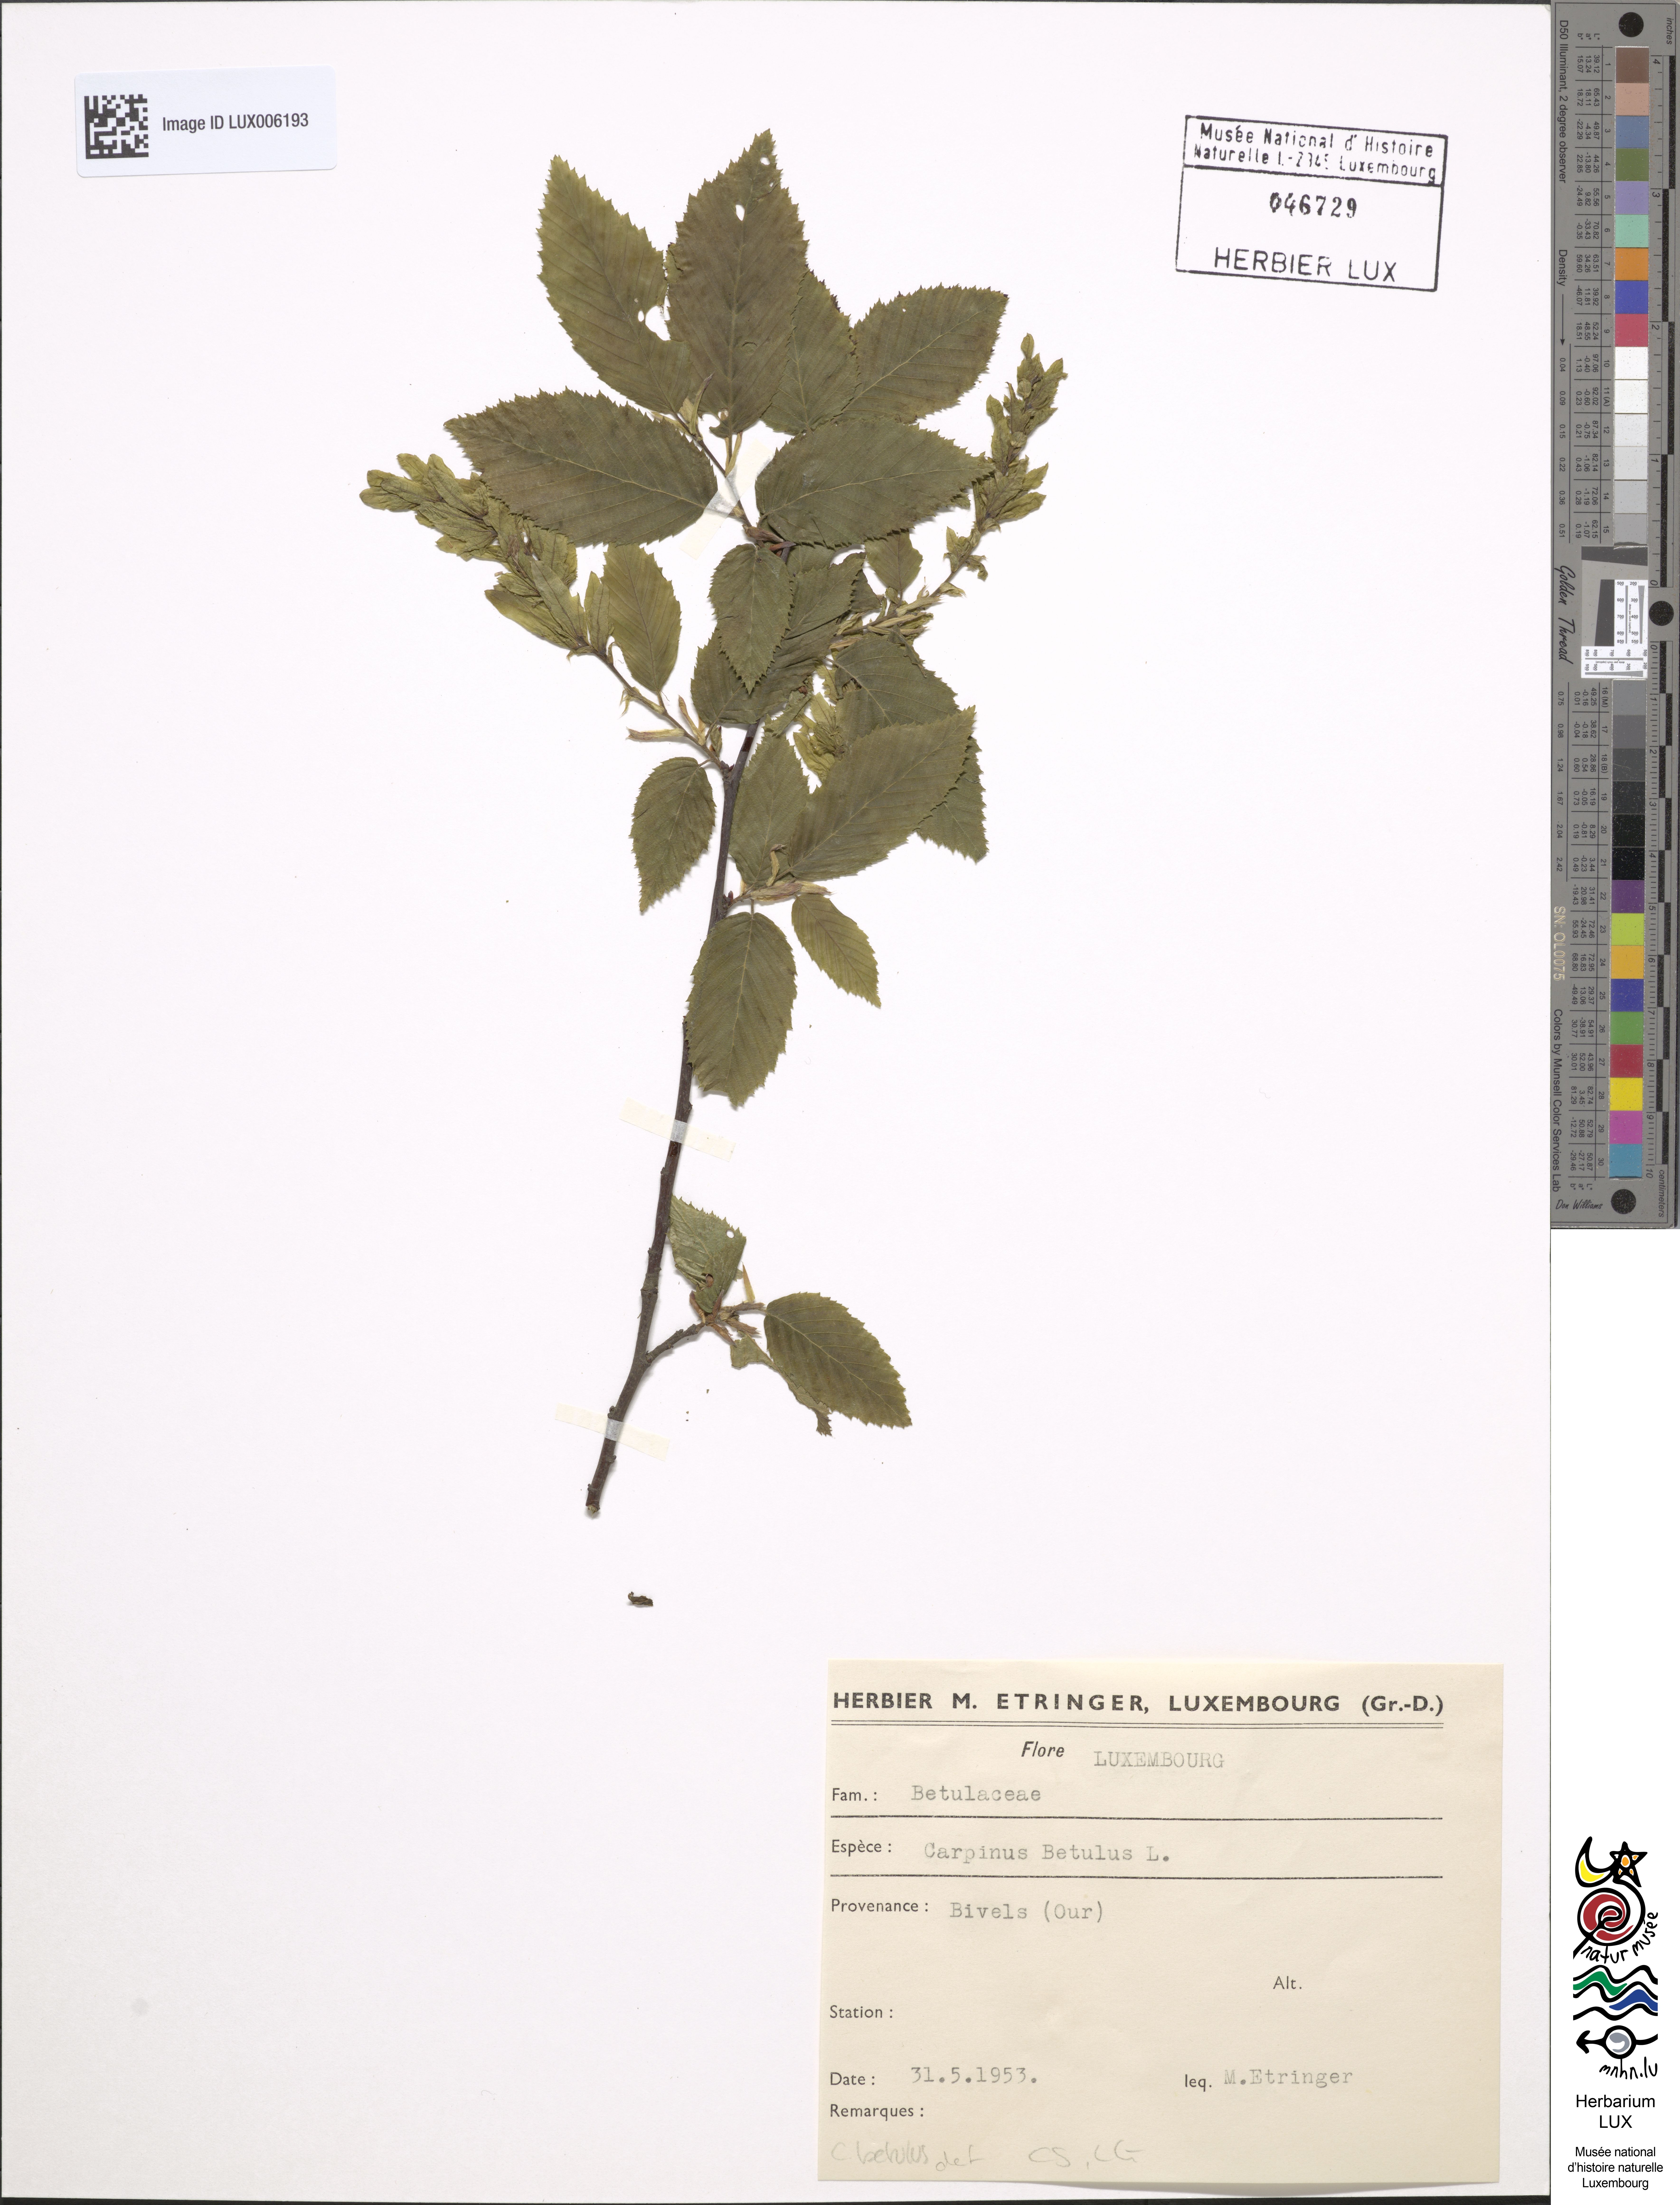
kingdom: Plantae
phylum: Tracheophyta
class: Magnoliopsida
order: Fagales
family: Betulaceae
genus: Carpinus
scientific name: Carpinus betulus
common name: Hornbeam
